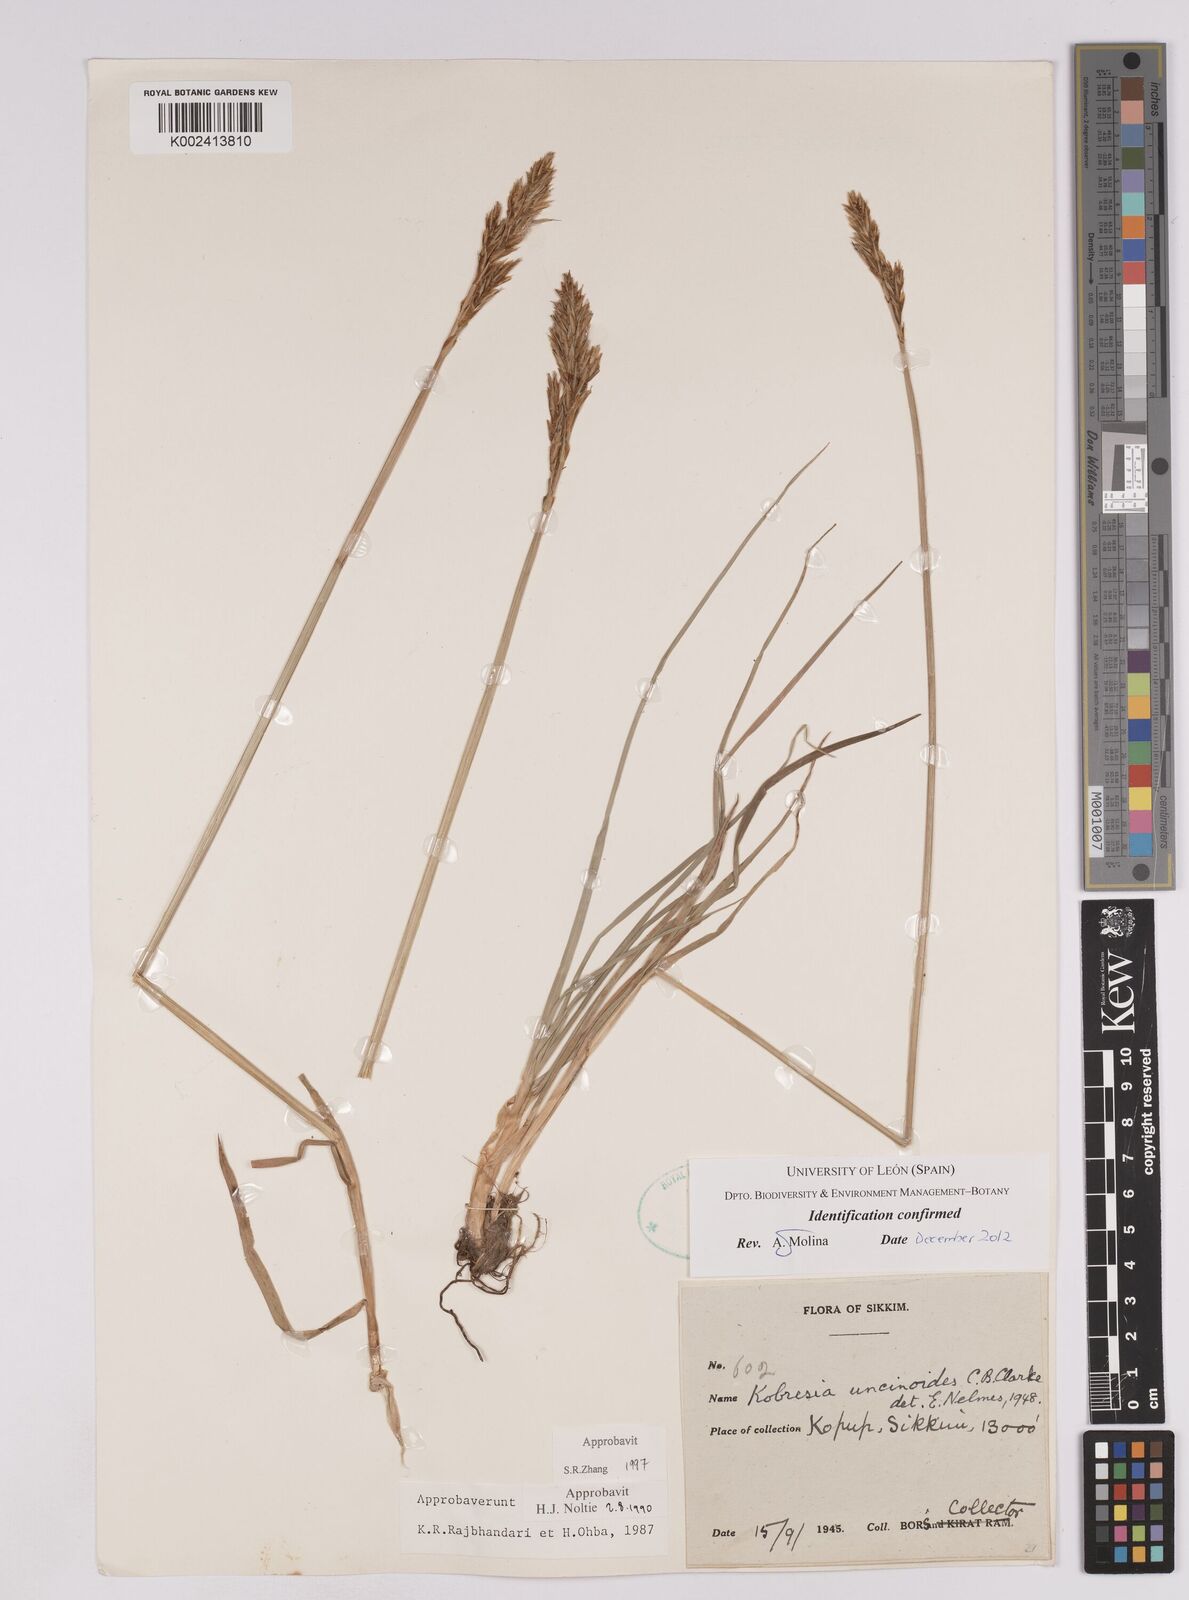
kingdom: Plantae
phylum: Tracheophyta
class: Liliopsida
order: Poales
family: Cyperaceae
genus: Carex
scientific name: Carex uncinioides
